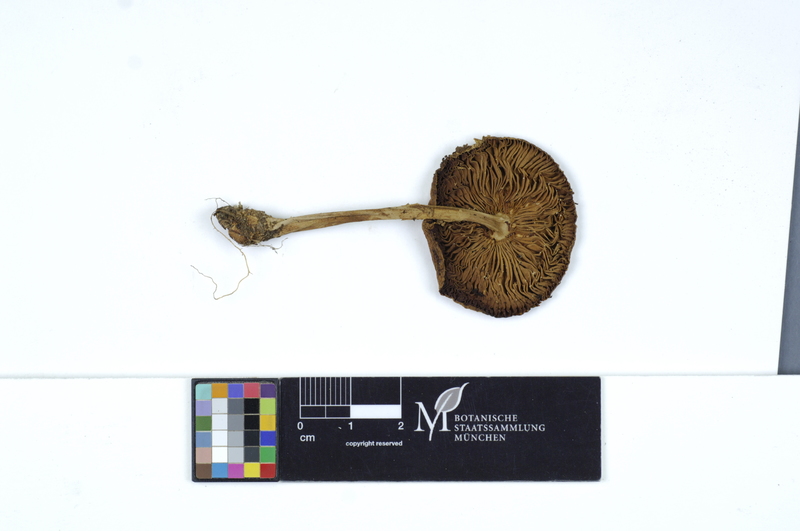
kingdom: Fungi
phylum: Basidiomycota
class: Agaricomycetes
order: Agaricales
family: Amanitaceae
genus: Amanita
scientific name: Amanita porphyria
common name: Grey veiled amanita
